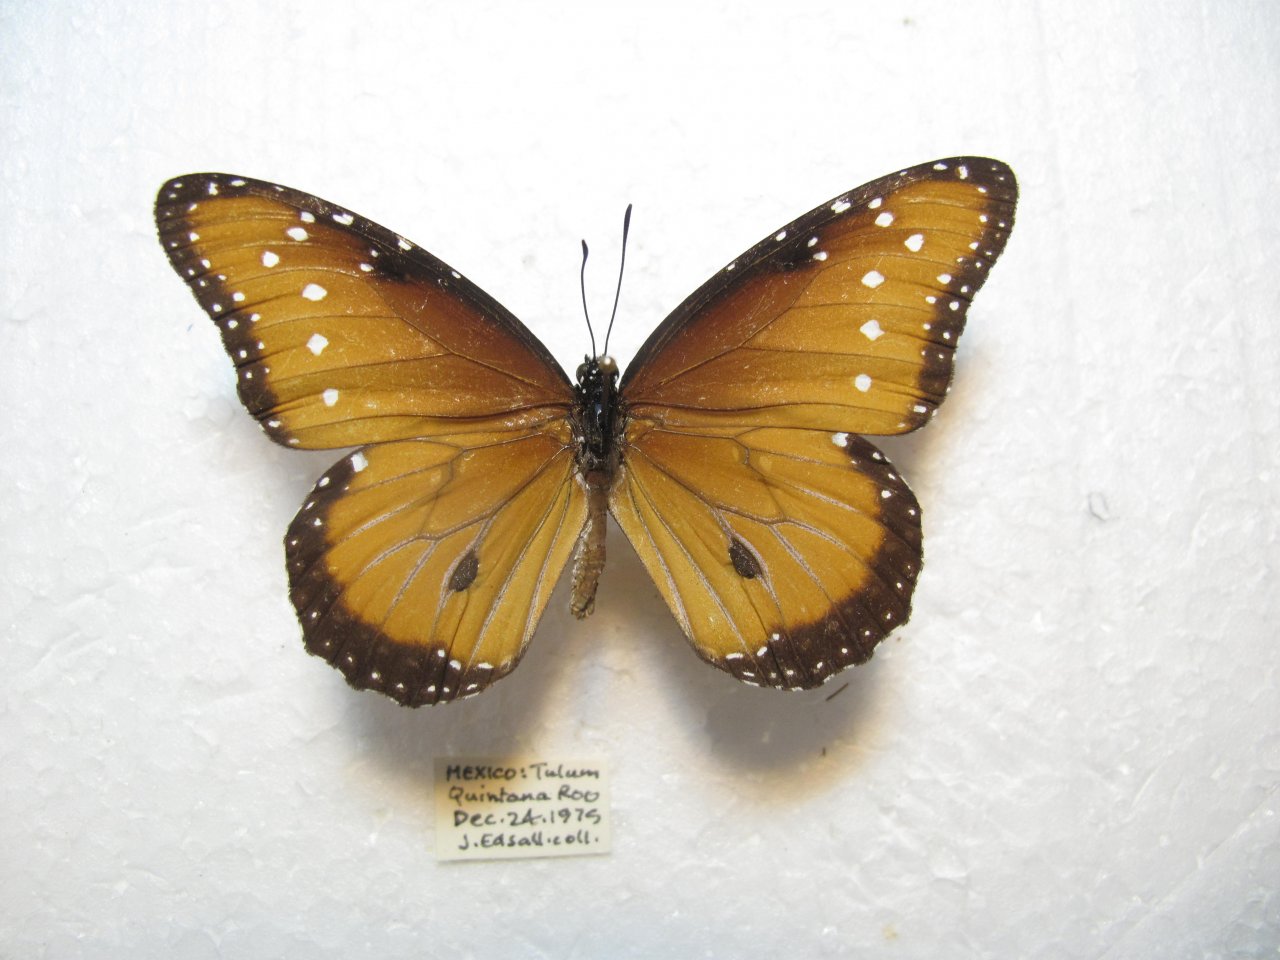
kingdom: Animalia
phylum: Arthropoda
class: Insecta
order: Lepidoptera
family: Nymphalidae
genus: Danaus
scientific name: Danaus gilippus
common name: Queen
